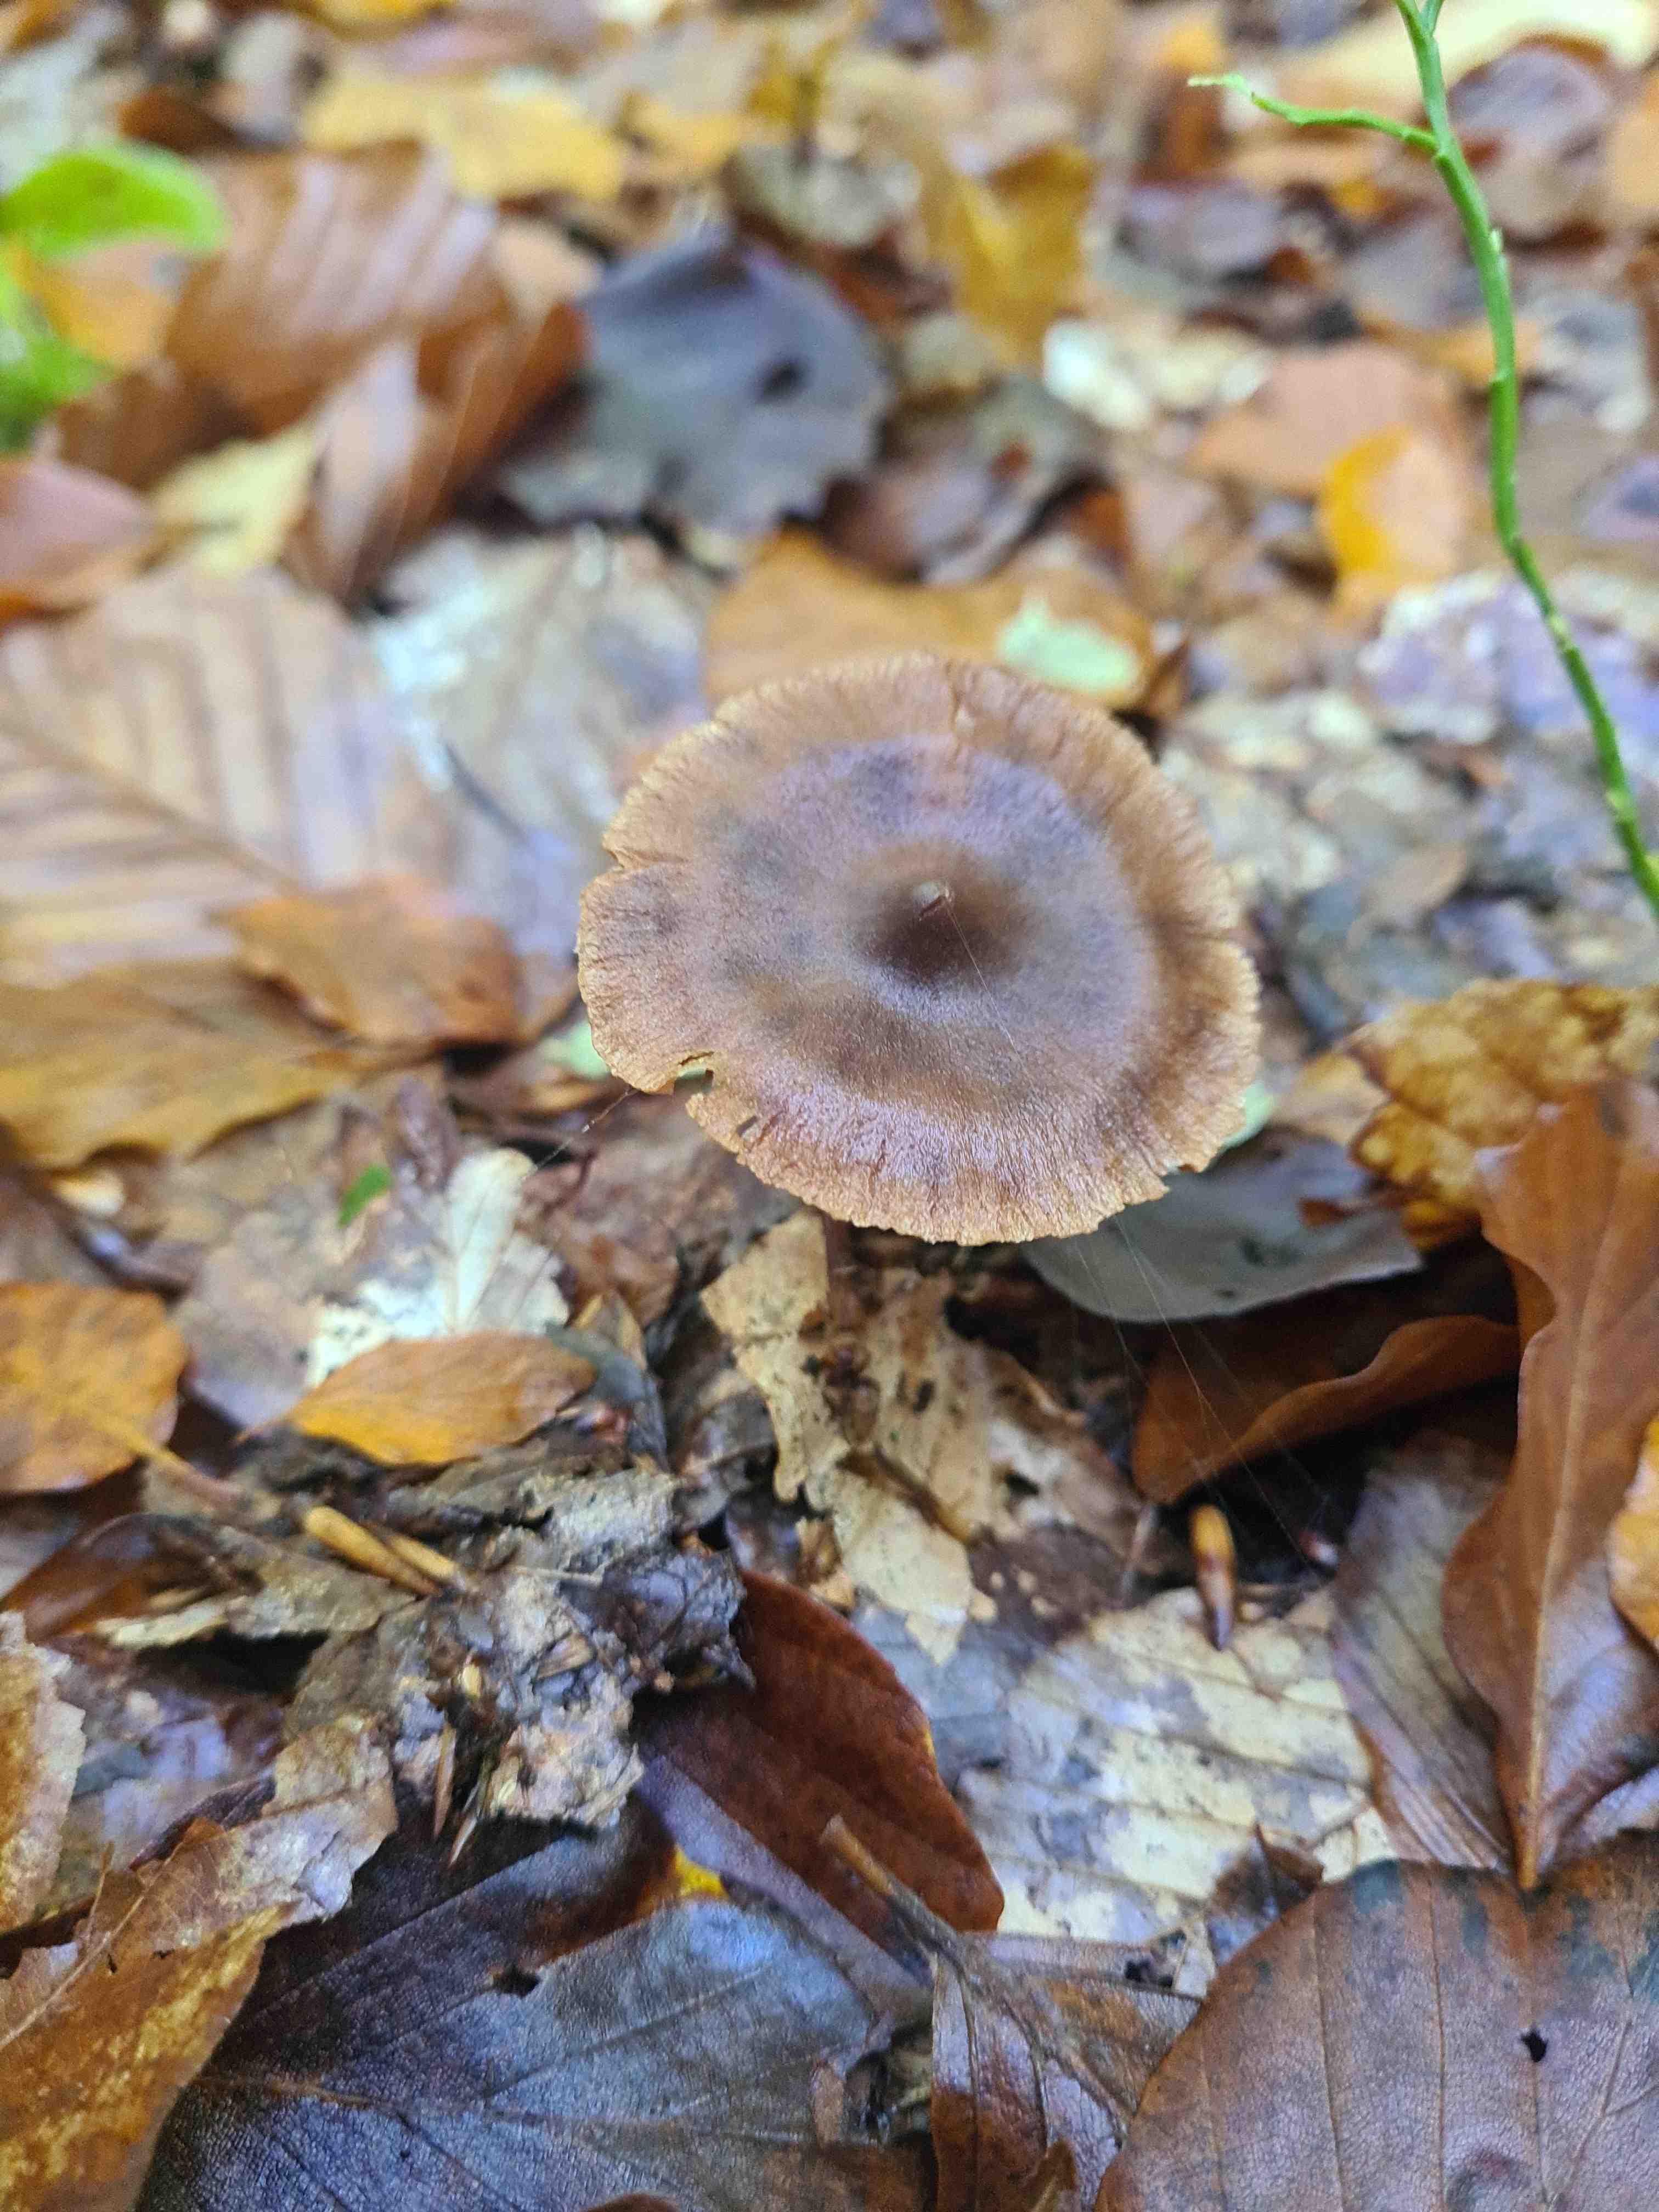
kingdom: Fungi
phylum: Basidiomycota
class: Agaricomycetes
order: Agaricales
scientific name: Agaricales
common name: champignonordenen
